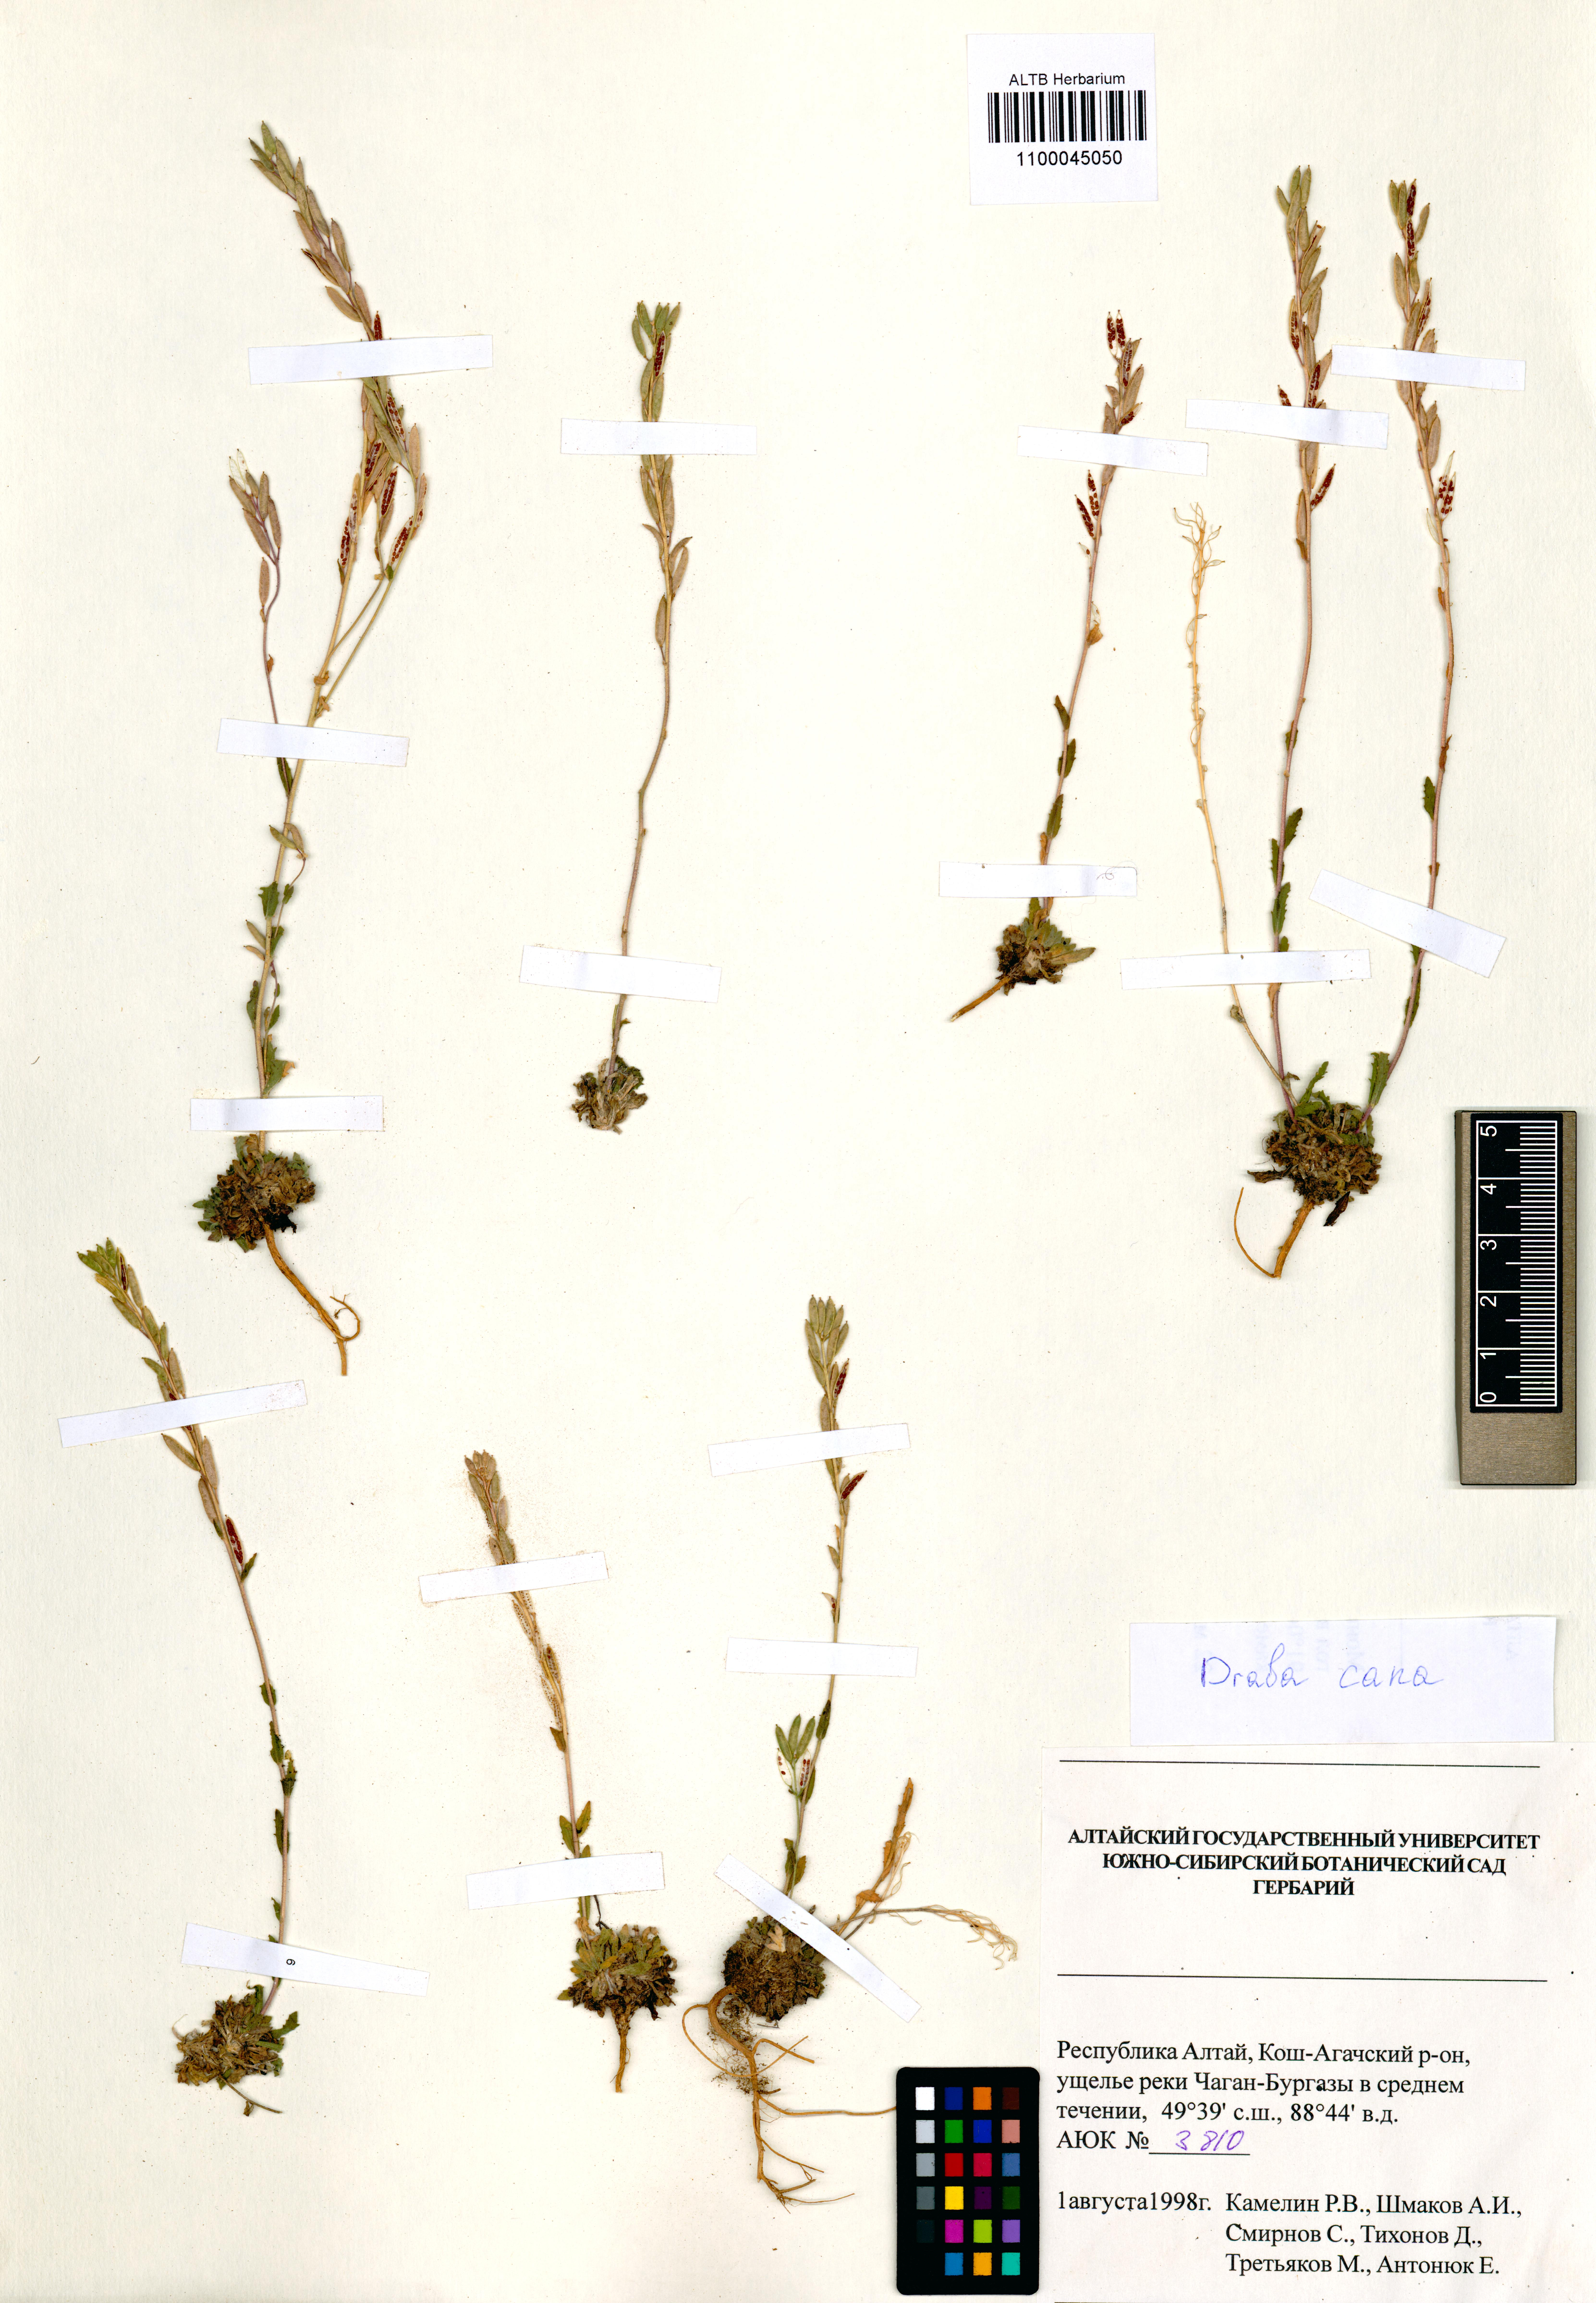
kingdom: Plantae
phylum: Tracheophyta
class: Magnoliopsida
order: Brassicales
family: Brassicaceae
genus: Draba
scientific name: Draba cana
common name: Hoary draba
